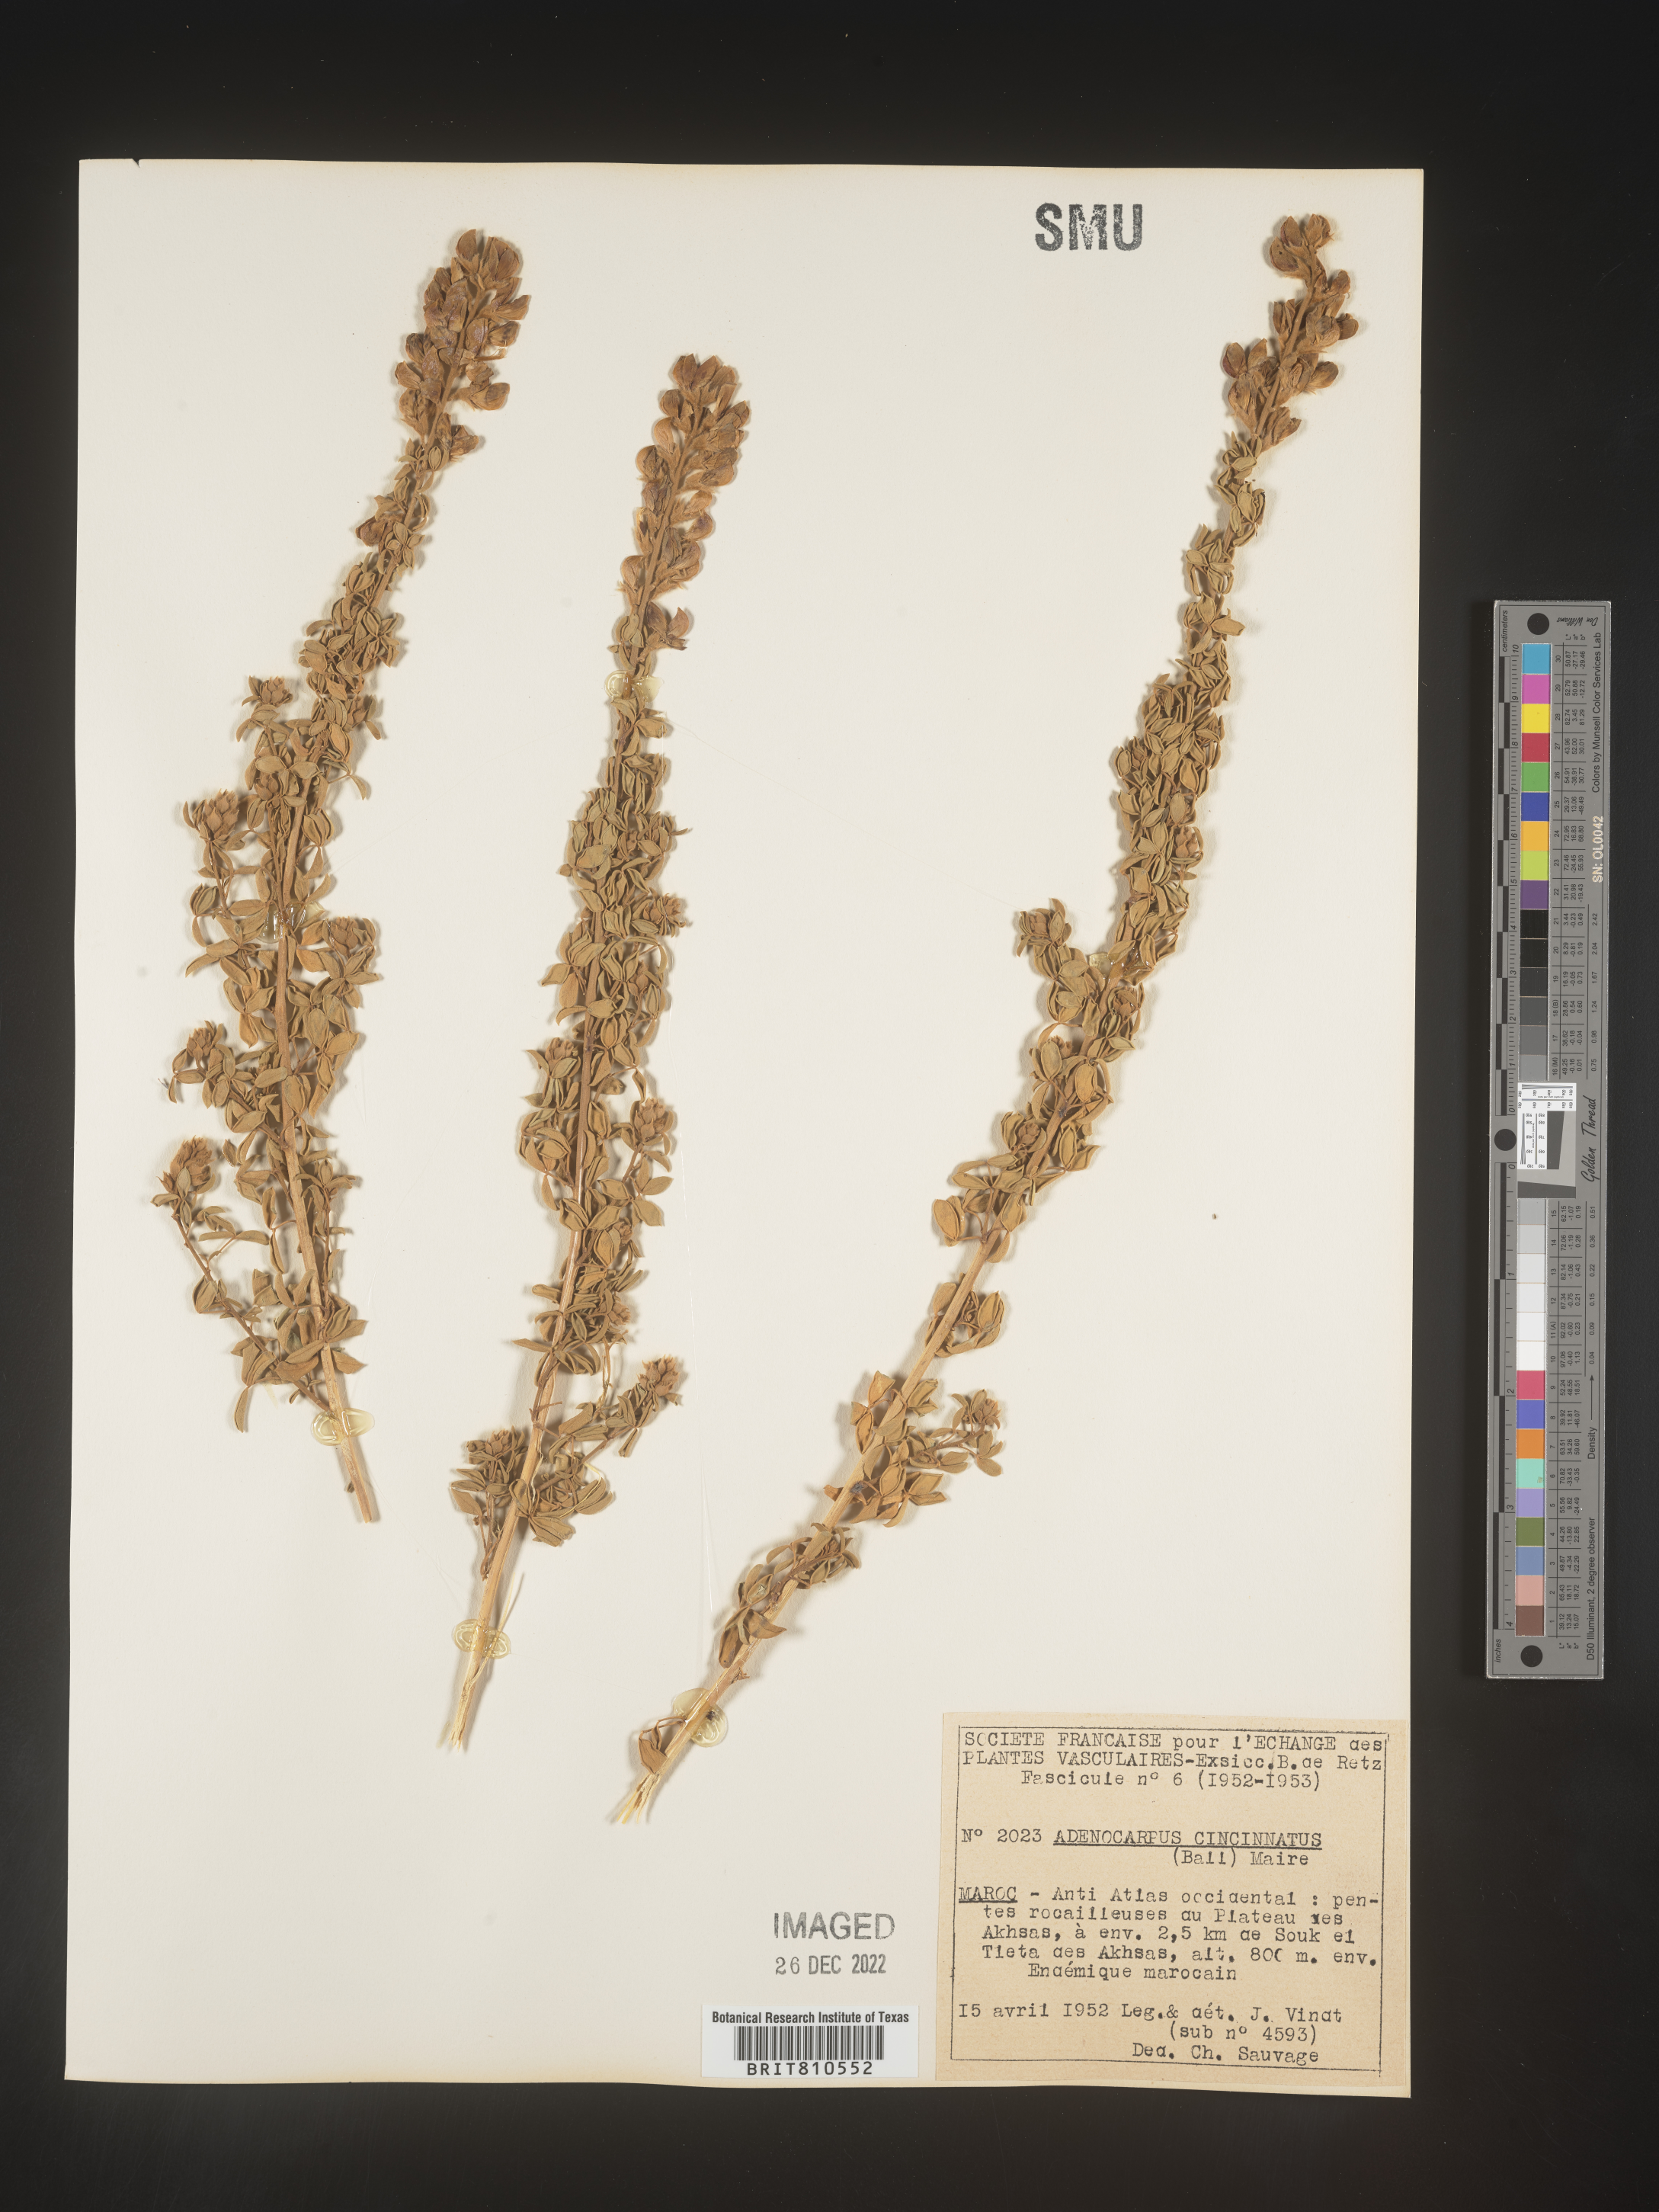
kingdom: Plantae
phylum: Tracheophyta
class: Magnoliopsida
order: Fabales
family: Fabaceae
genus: Adenocarpus
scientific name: Adenocarpus
